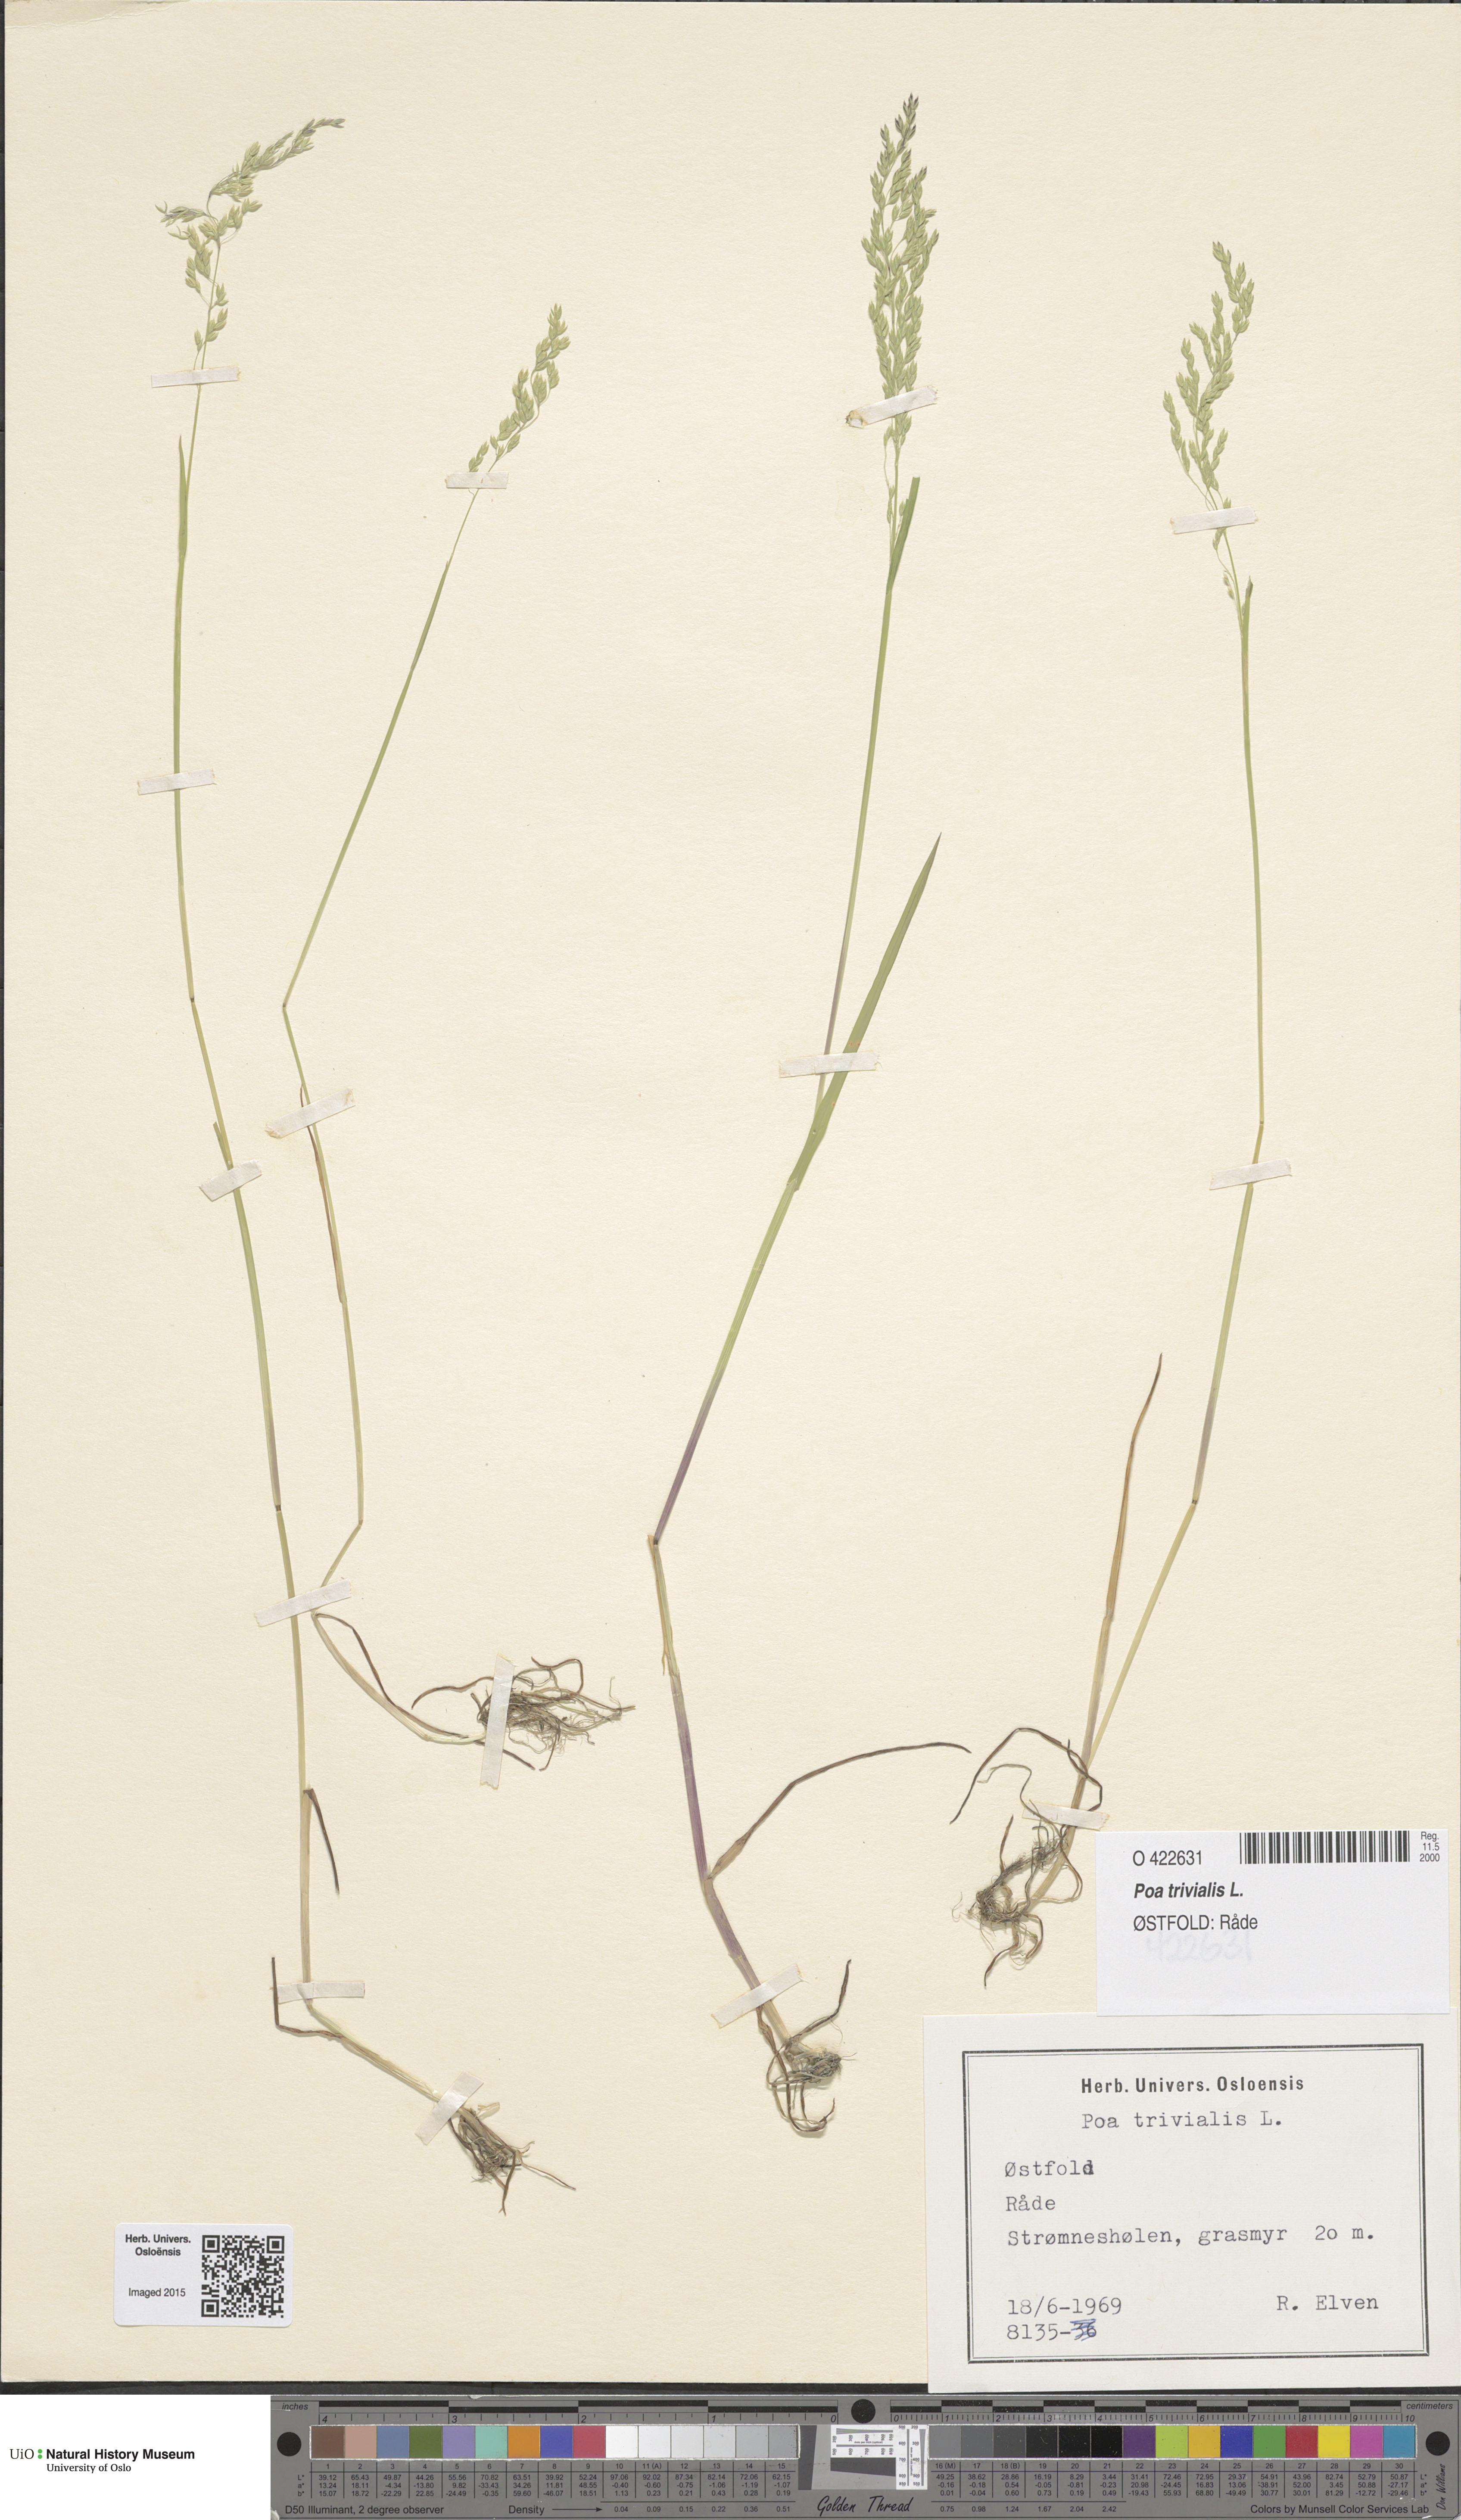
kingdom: Plantae
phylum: Tracheophyta
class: Liliopsida
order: Poales
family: Poaceae
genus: Poa
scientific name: Poa trivialis
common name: Rough bluegrass
